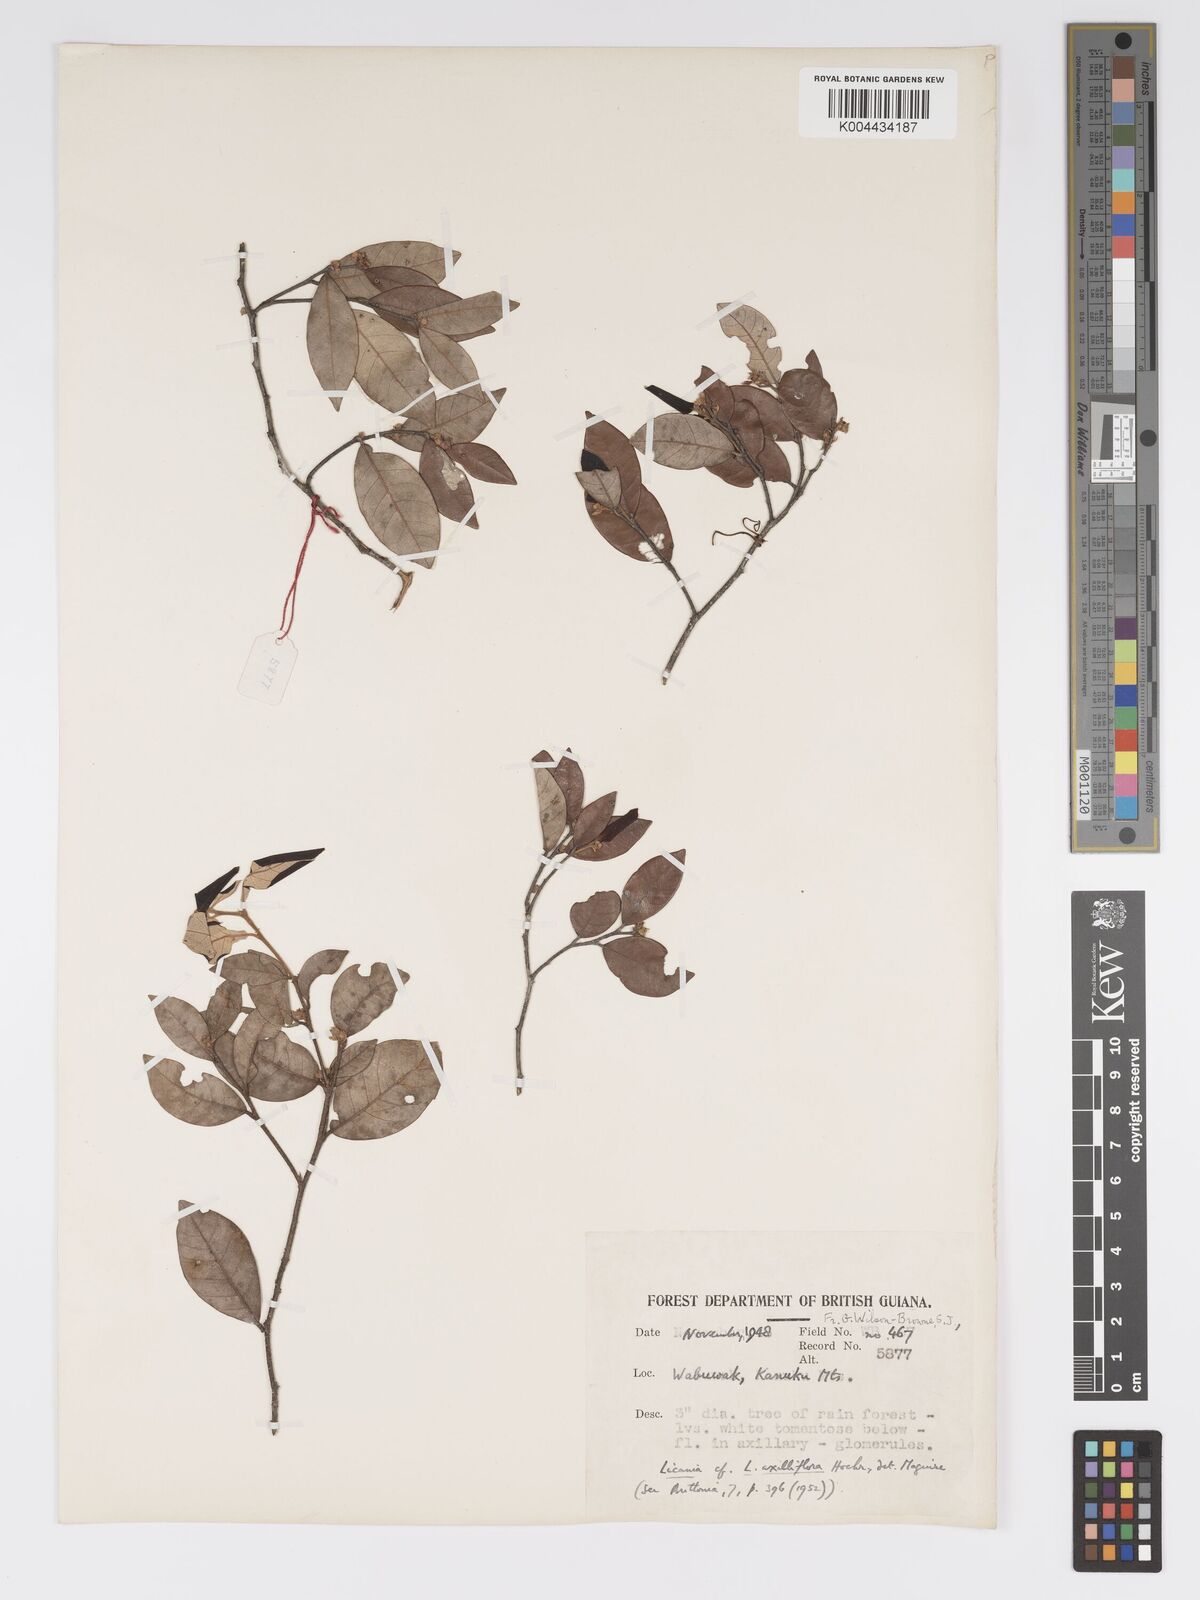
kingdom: Plantae
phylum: Tracheophyta
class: Magnoliopsida
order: Malpighiales
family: Chrysobalanaceae
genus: Licania
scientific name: Licania leptostachya
